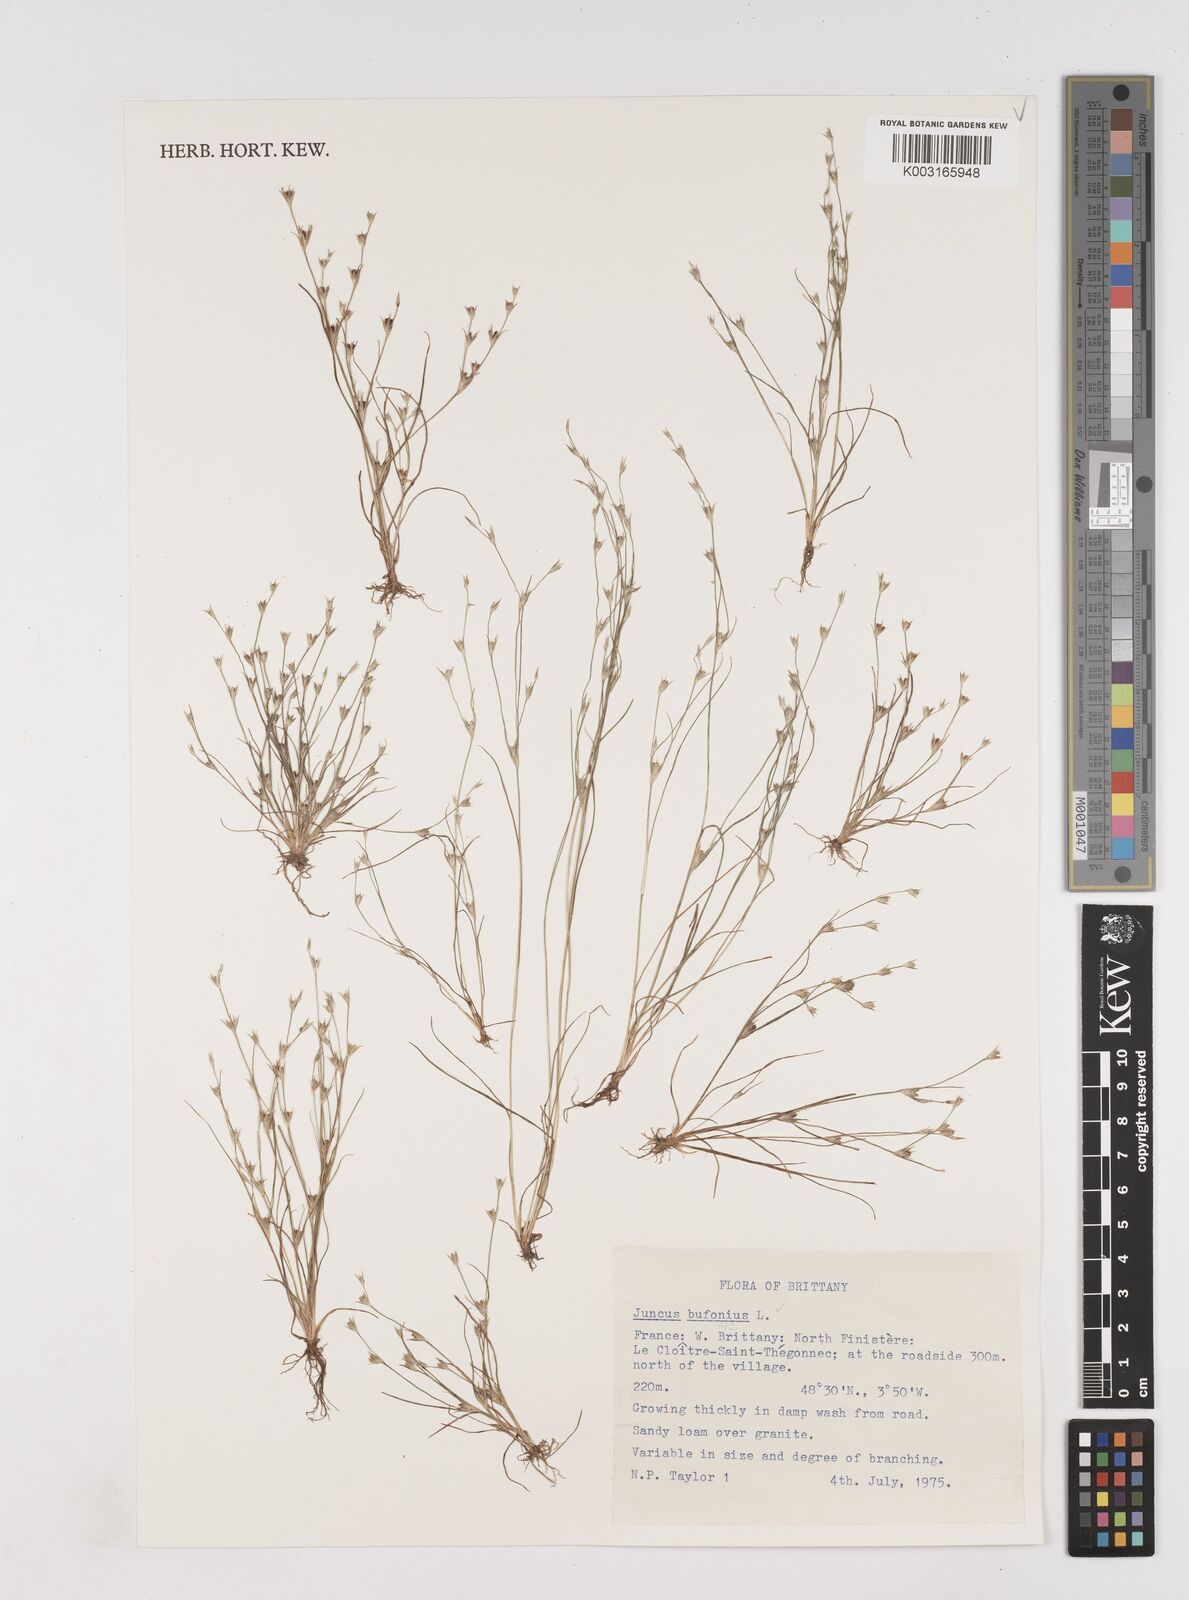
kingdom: Plantae
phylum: Tracheophyta
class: Liliopsida
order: Poales
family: Juncaceae
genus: Juncus
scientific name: Juncus bufonius
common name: Toad rush
